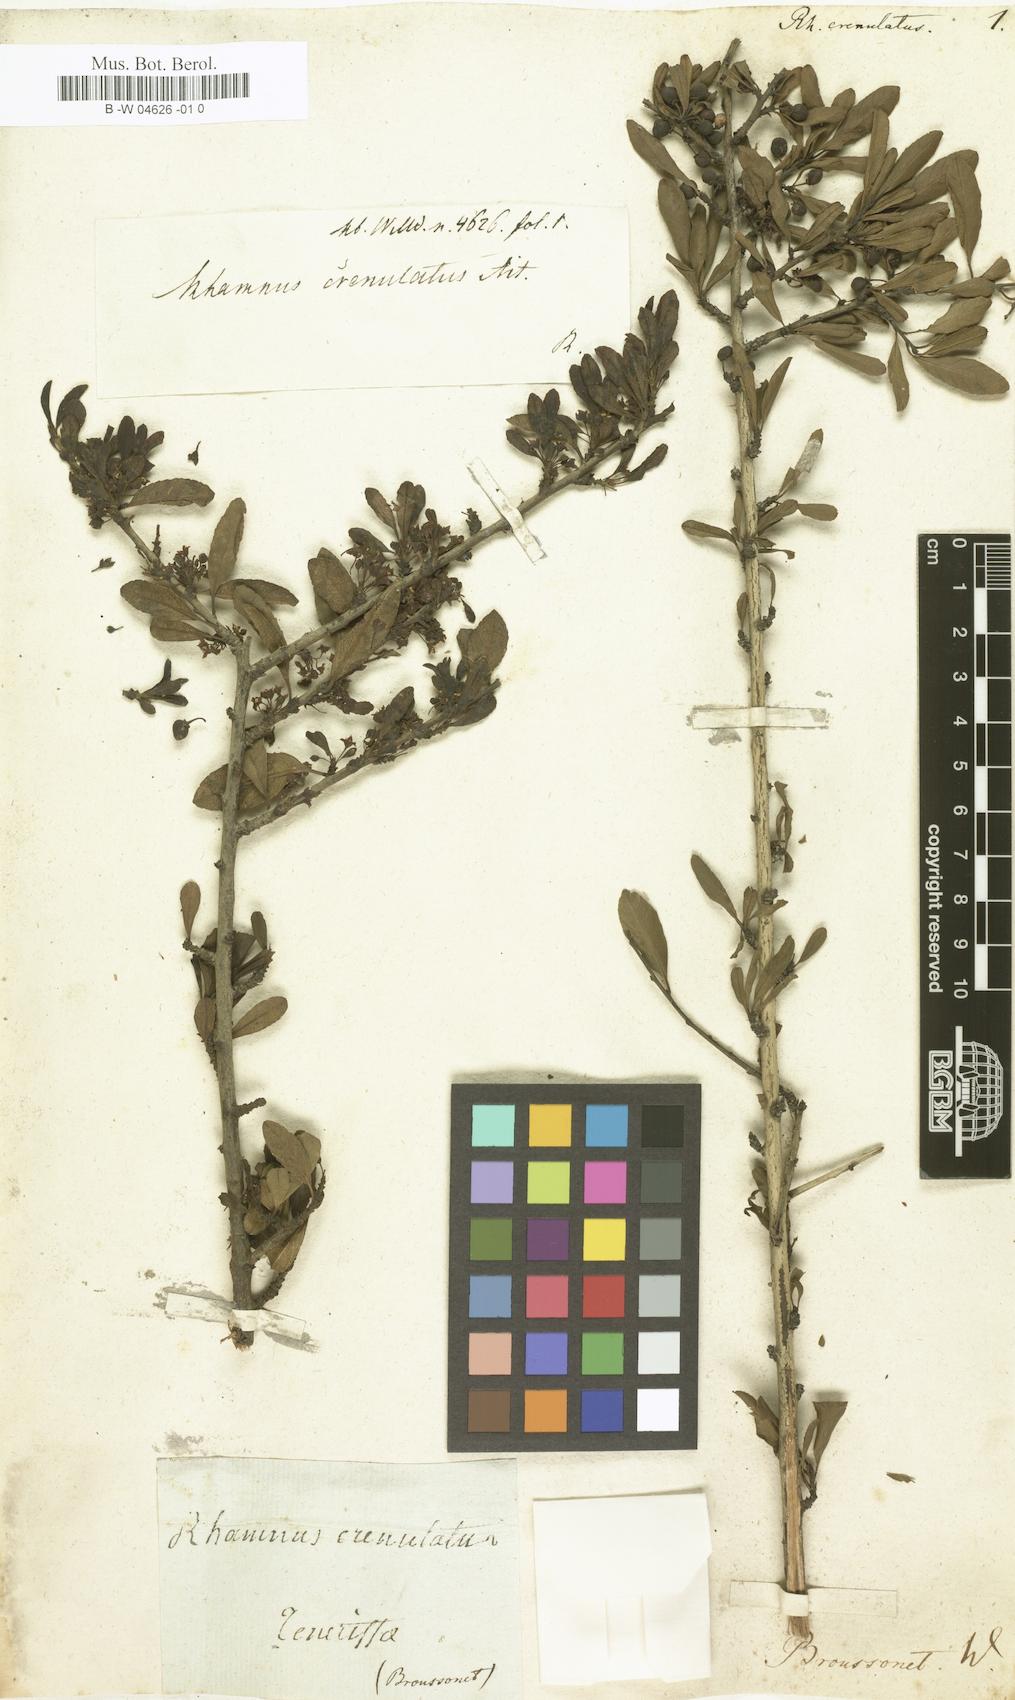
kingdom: Plantae
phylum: Tracheophyta
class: Magnoliopsida
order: Rosales
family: Rhamnaceae
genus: Rhamnus
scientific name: Rhamnus crenulata
